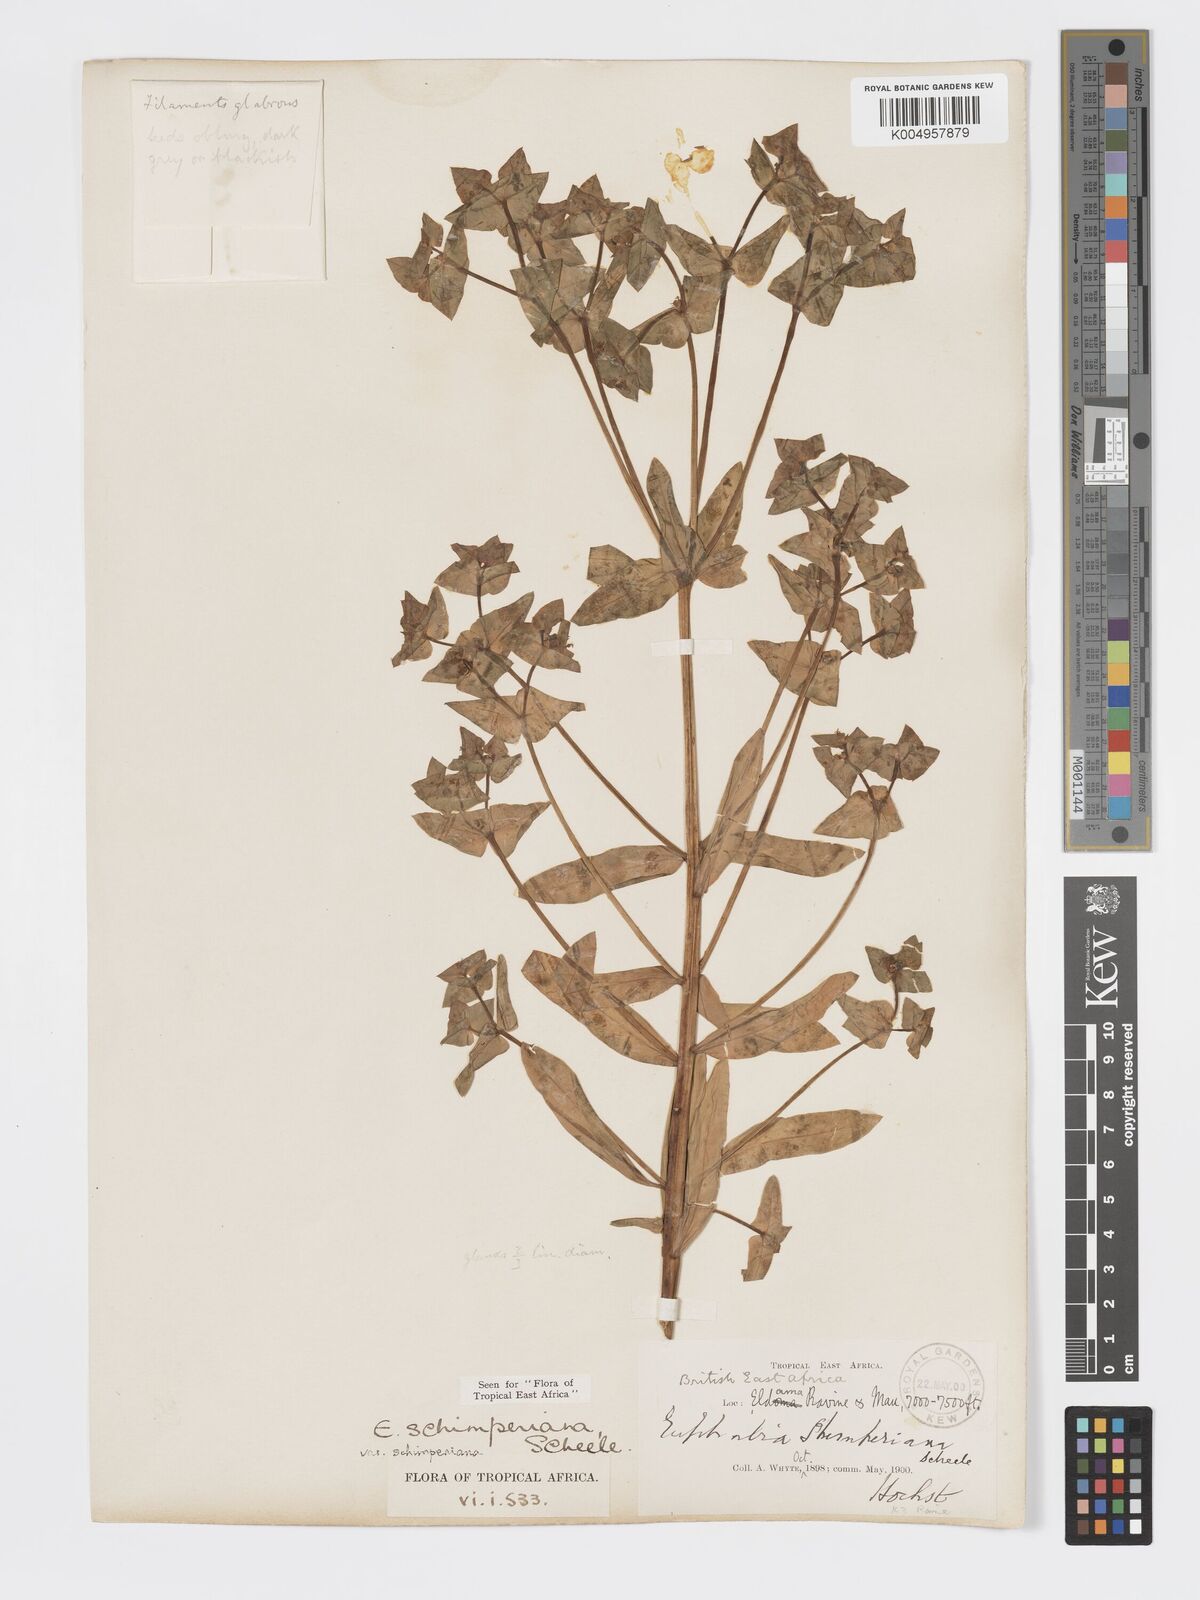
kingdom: Plantae
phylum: Tracheophyta
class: Magnoliopsida
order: Malpighiales
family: Euphorbiaceae
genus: Euphorbia
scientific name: Euphorbia schimperiana
